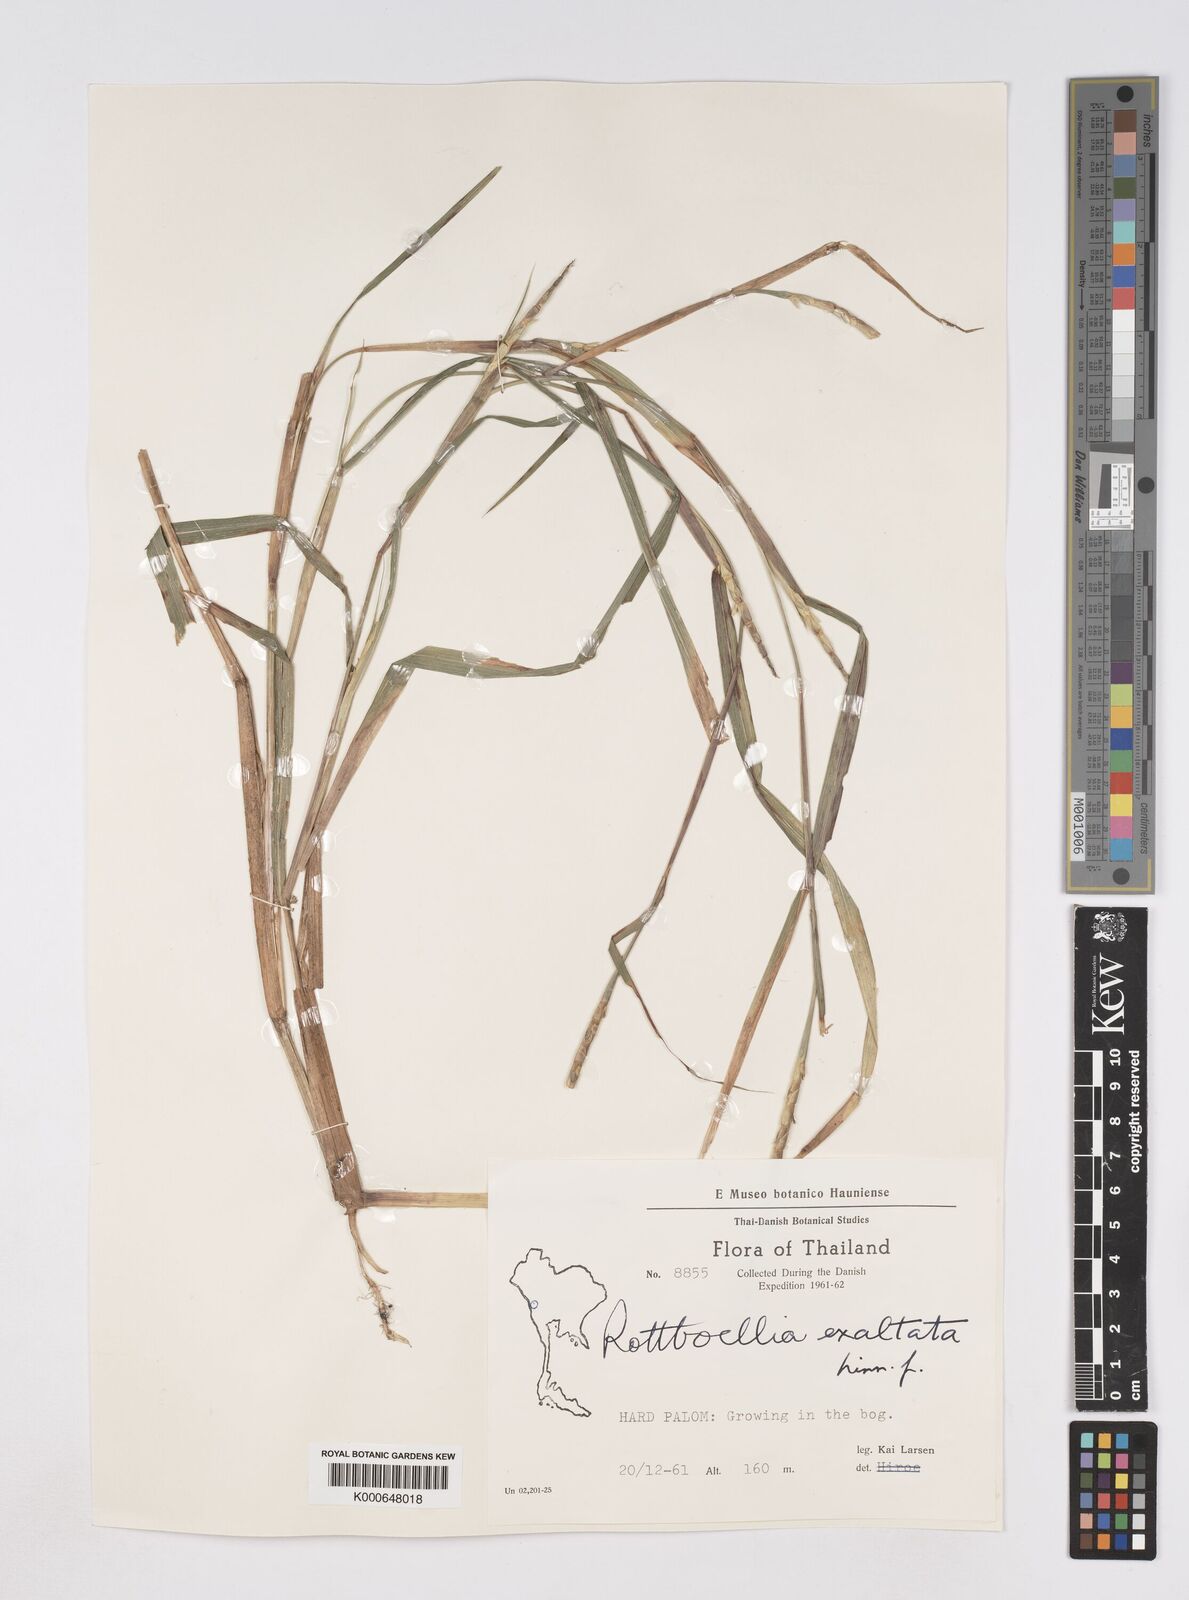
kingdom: Plantae
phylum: Tracheophyta
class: Liliopsida
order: Poales
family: Poaceae
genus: Rottboellia
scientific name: Rottboellia cochinchinensis
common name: Itchgrass
